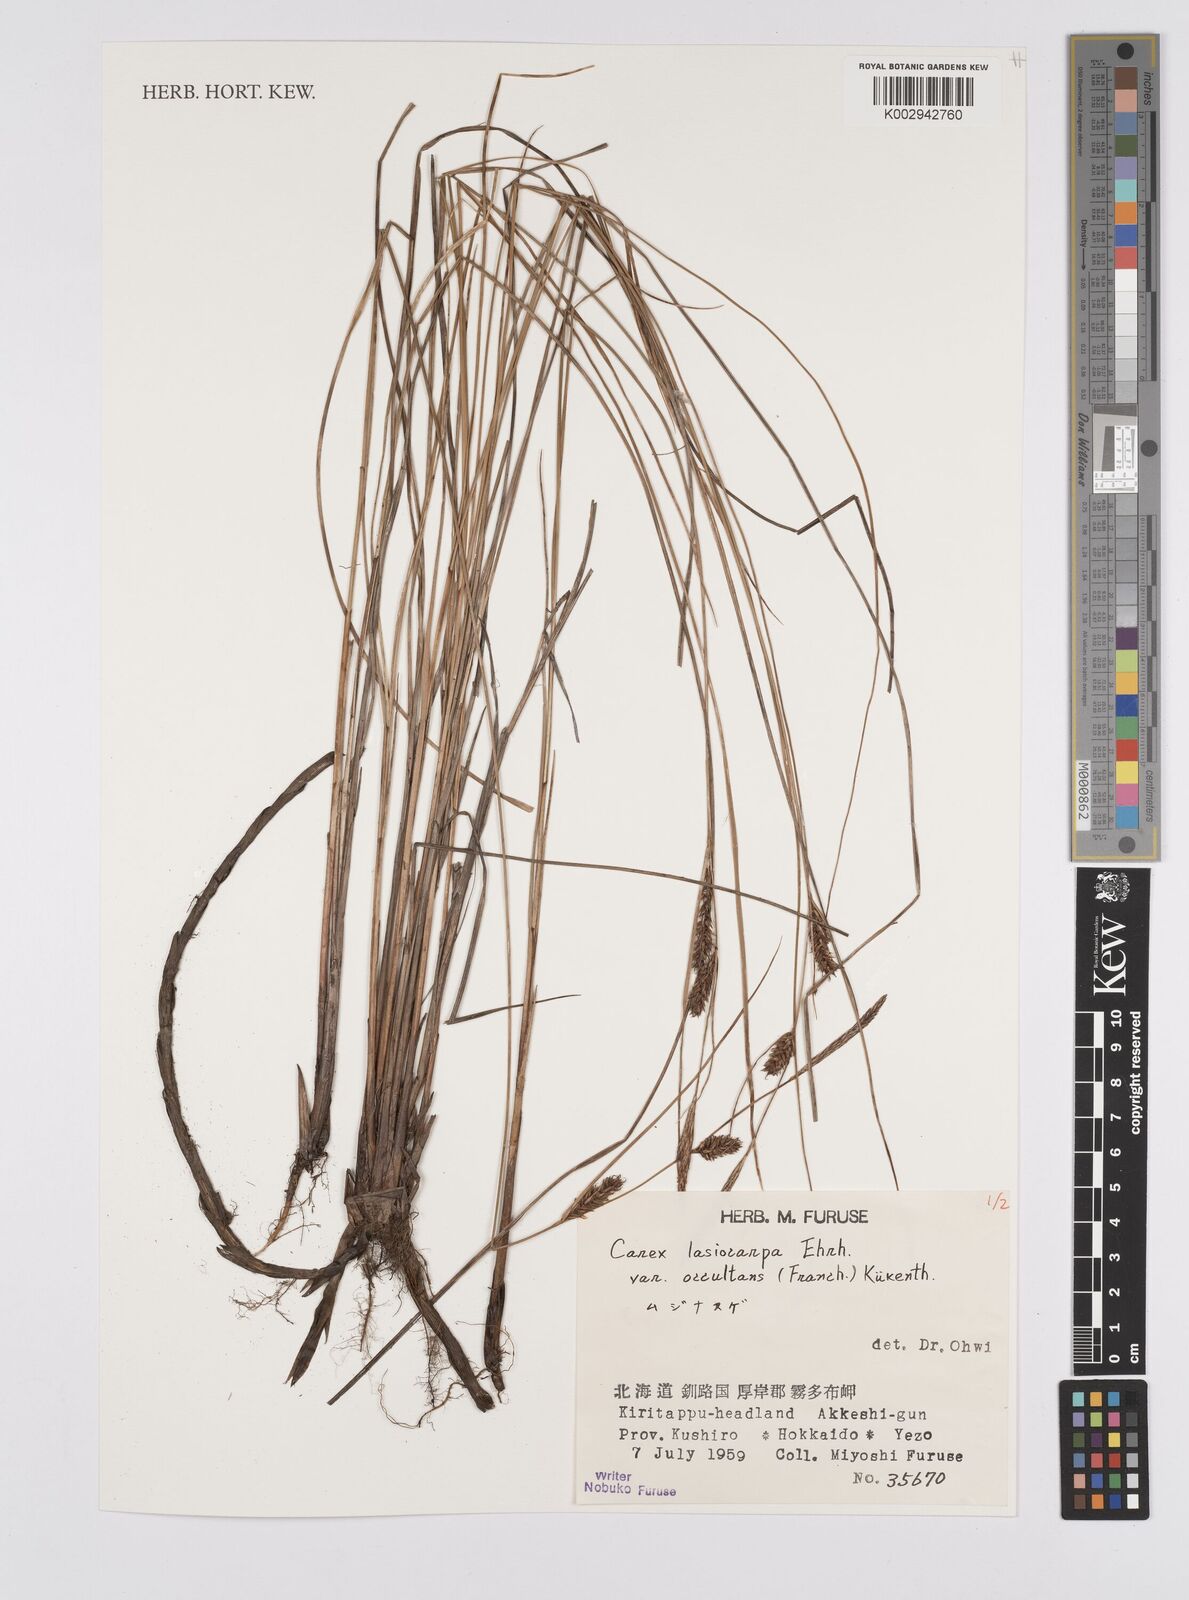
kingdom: Plantae
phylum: Tracheophyta
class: Liliopsida
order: Poales
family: Cyperaceae
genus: Carex
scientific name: Carex lasiocarpa
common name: Slender sedge
